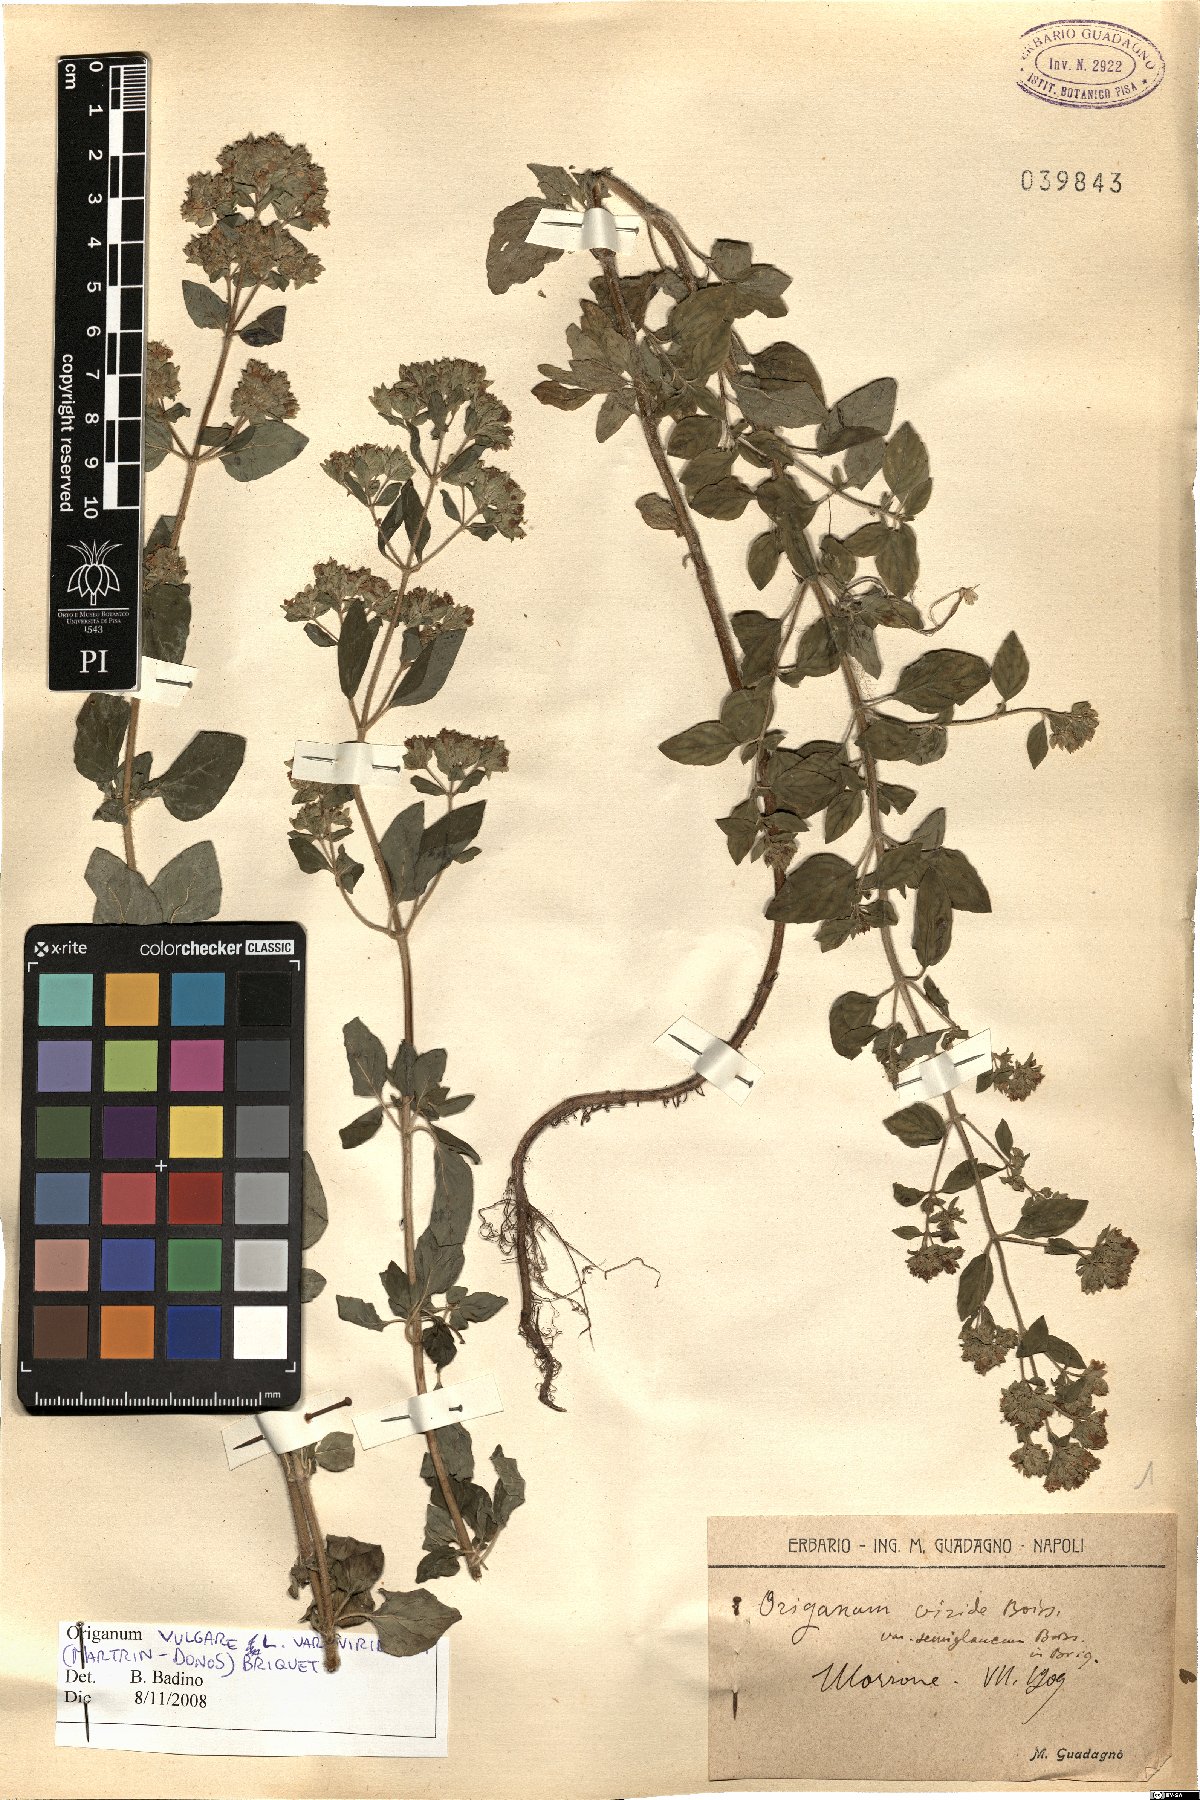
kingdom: Plantae
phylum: Tracheophyta
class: Magnoliopsida
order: Lamiales
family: Lamiaceae
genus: Origanum
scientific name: Origanum vulgare
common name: Wild marjoram
